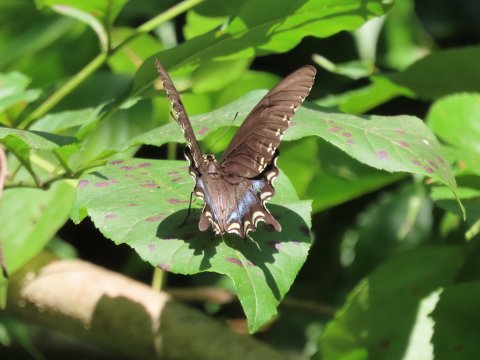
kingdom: Animalia
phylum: Arthropoda
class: Insecta
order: Lepidoptera
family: Papilionidae
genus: Pterourus
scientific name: Pterourus troilus
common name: Spicebush Swallowtail
